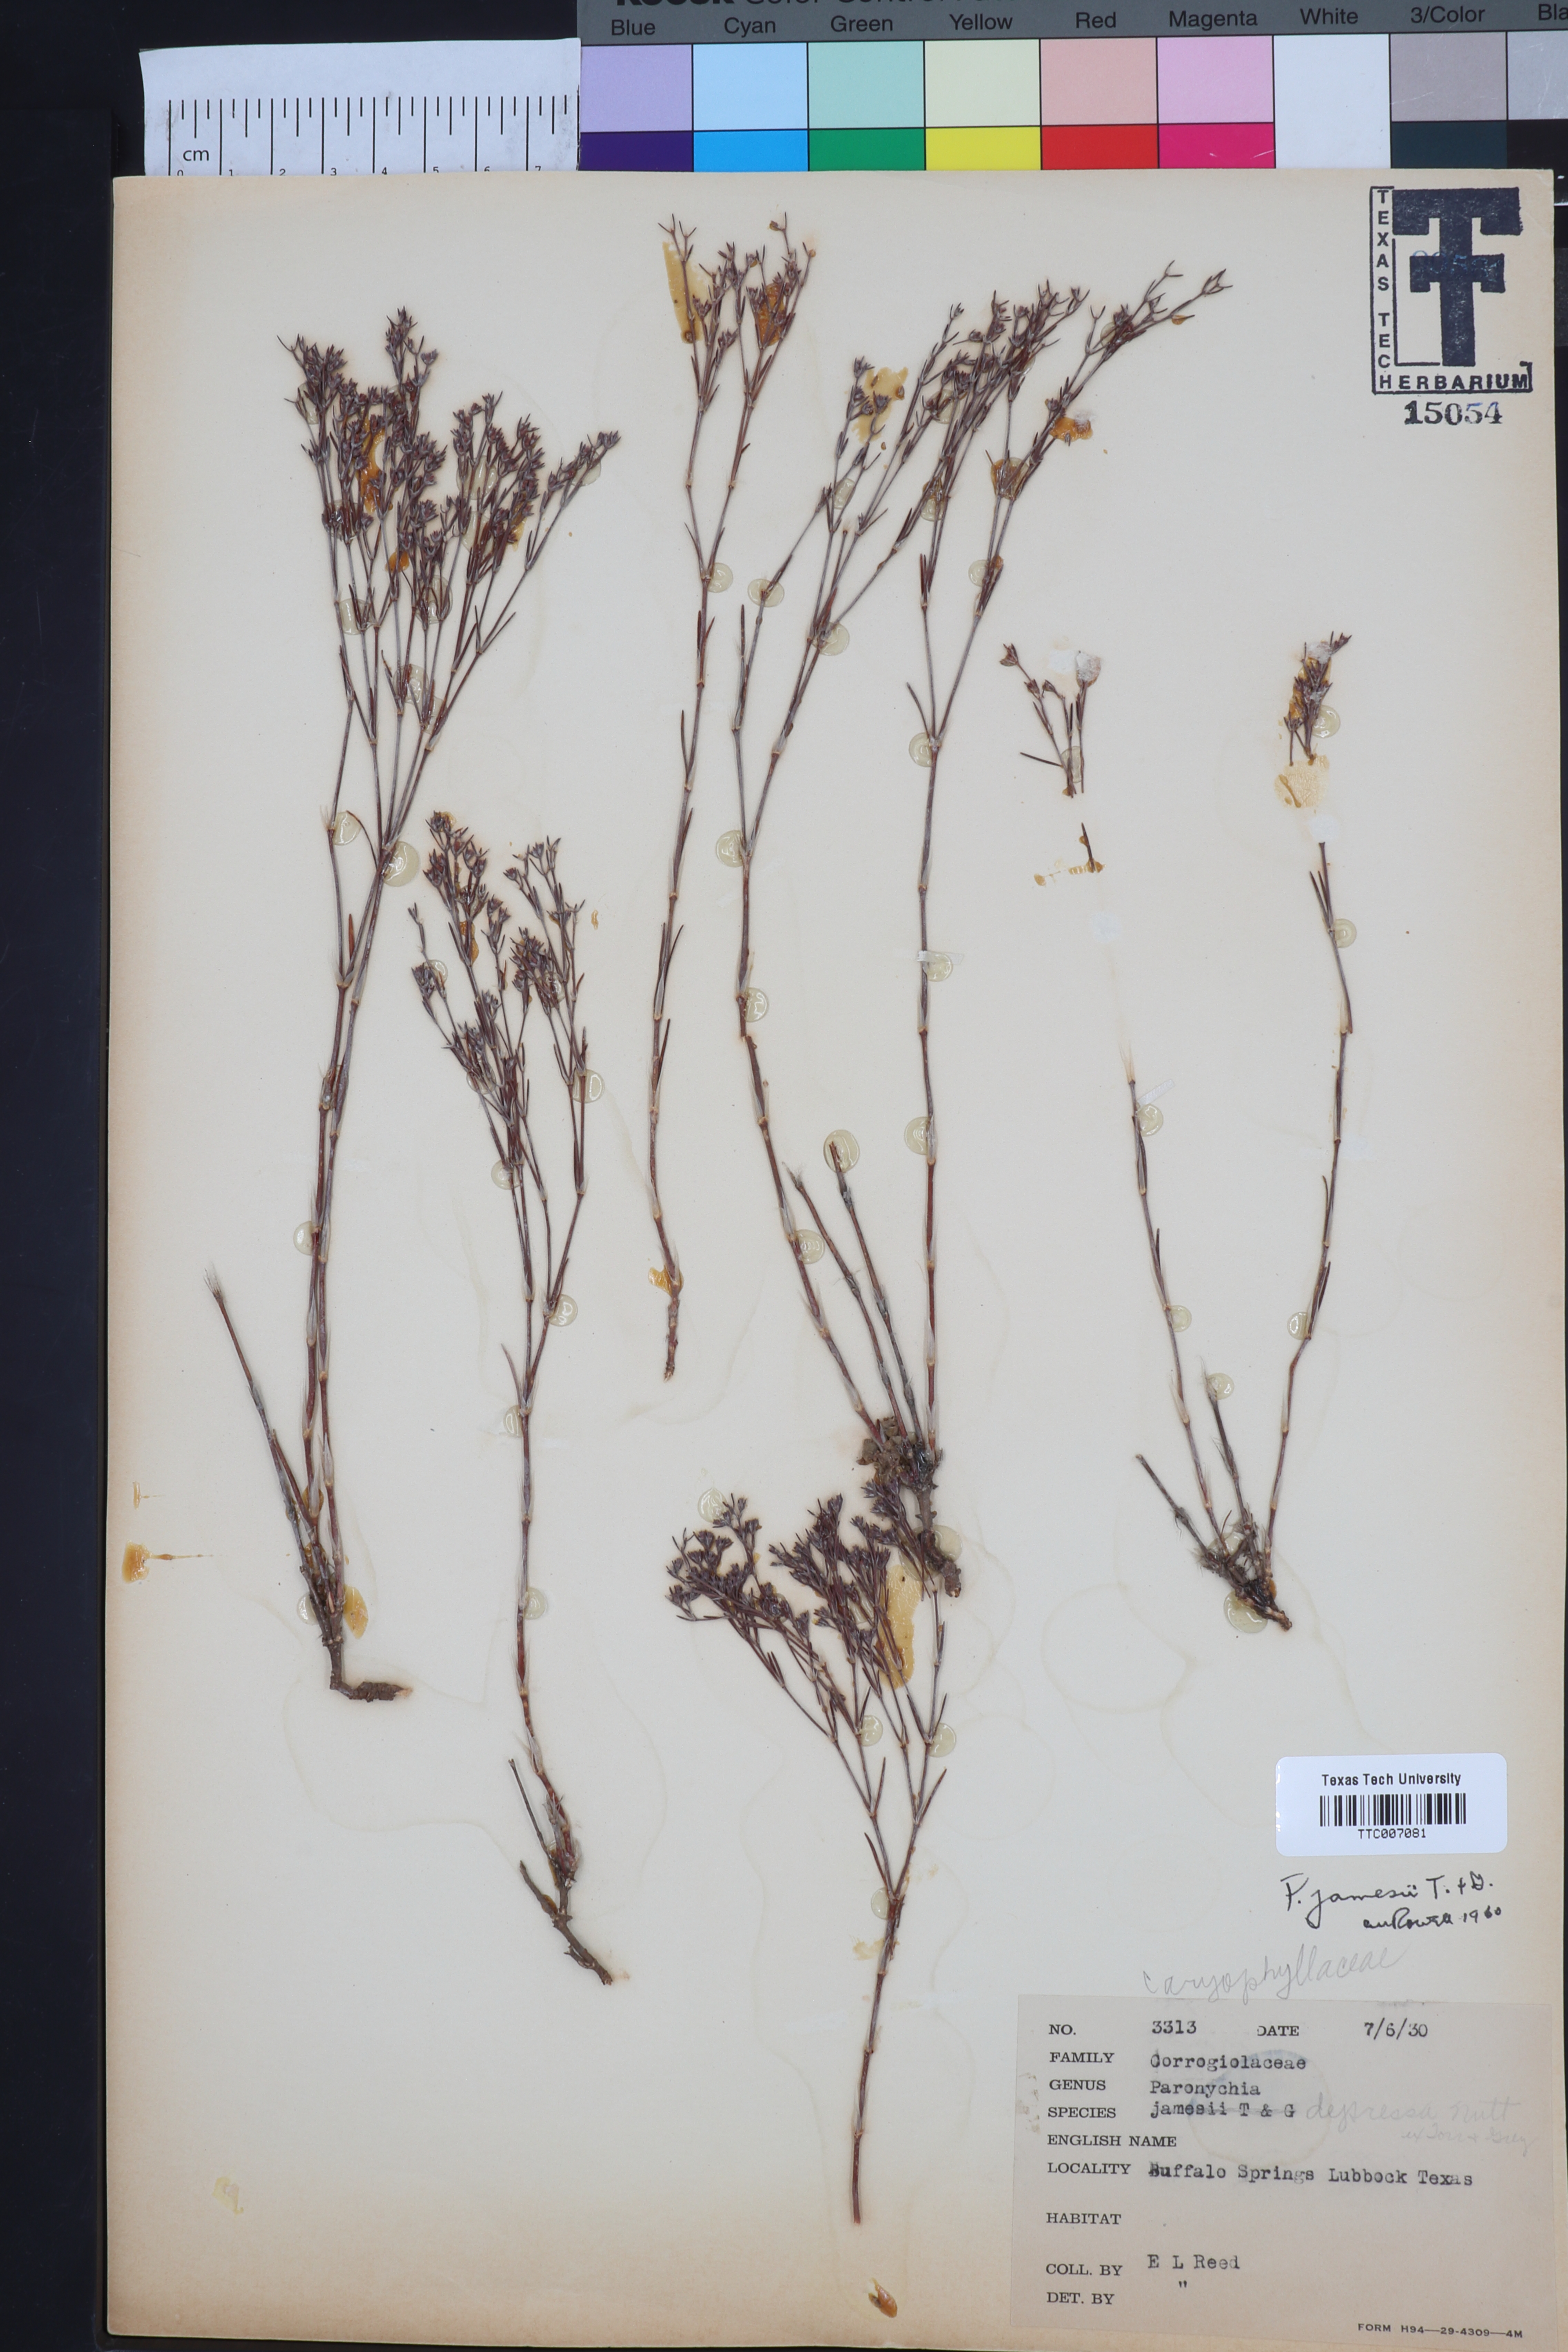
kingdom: Plantae
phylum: Tracheophyta
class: Magnoliopsida
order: Caryophyllales
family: Caryophyllaceae
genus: Paronychia
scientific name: Paronychia jamesii
